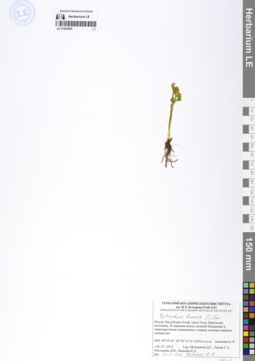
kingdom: Plantae
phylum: Tracheophyta
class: Polypodiopsida
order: Ophioglossales
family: Ophioglossaceae
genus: Botrychium
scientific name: Botrychium lunaria
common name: Moonwort
